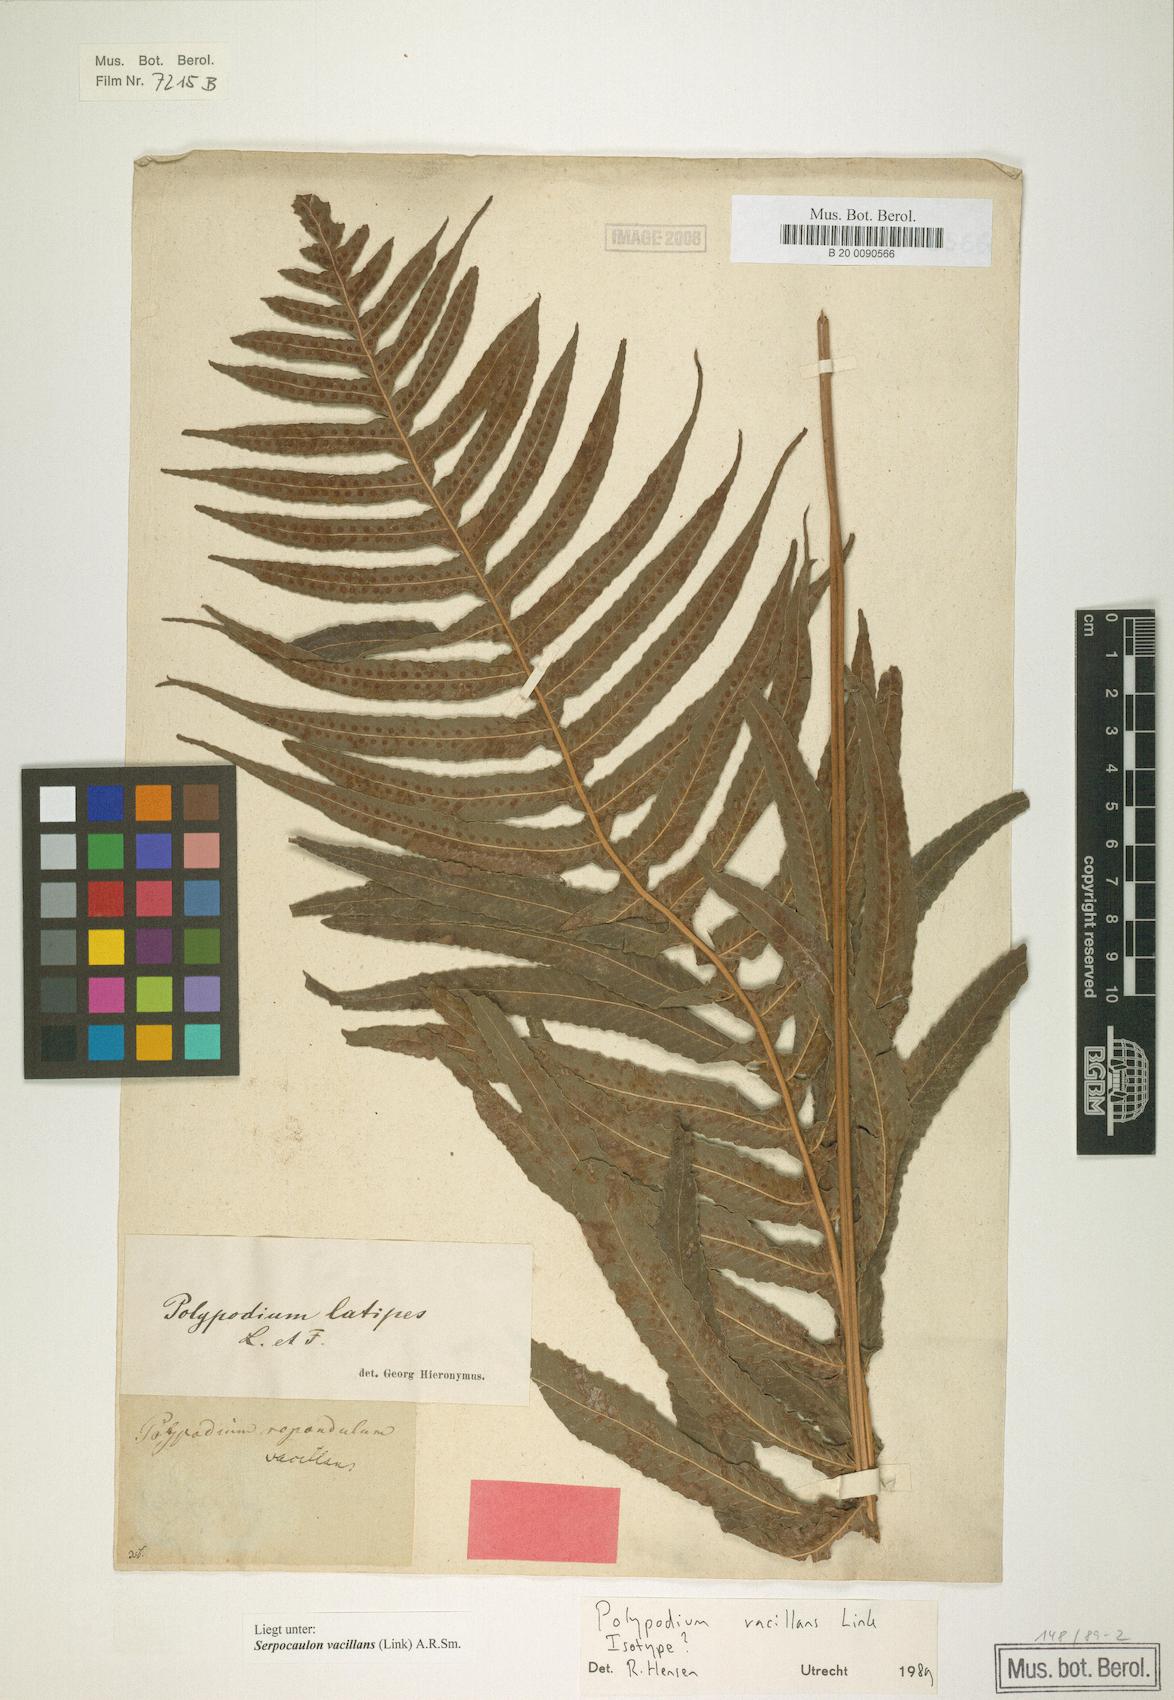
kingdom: Plantae
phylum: Tracheophyta
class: Polypodiopsida
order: Polypodiales
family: Polypodiaceae
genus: Serpocaulon
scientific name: Serpocaulon vacillans
